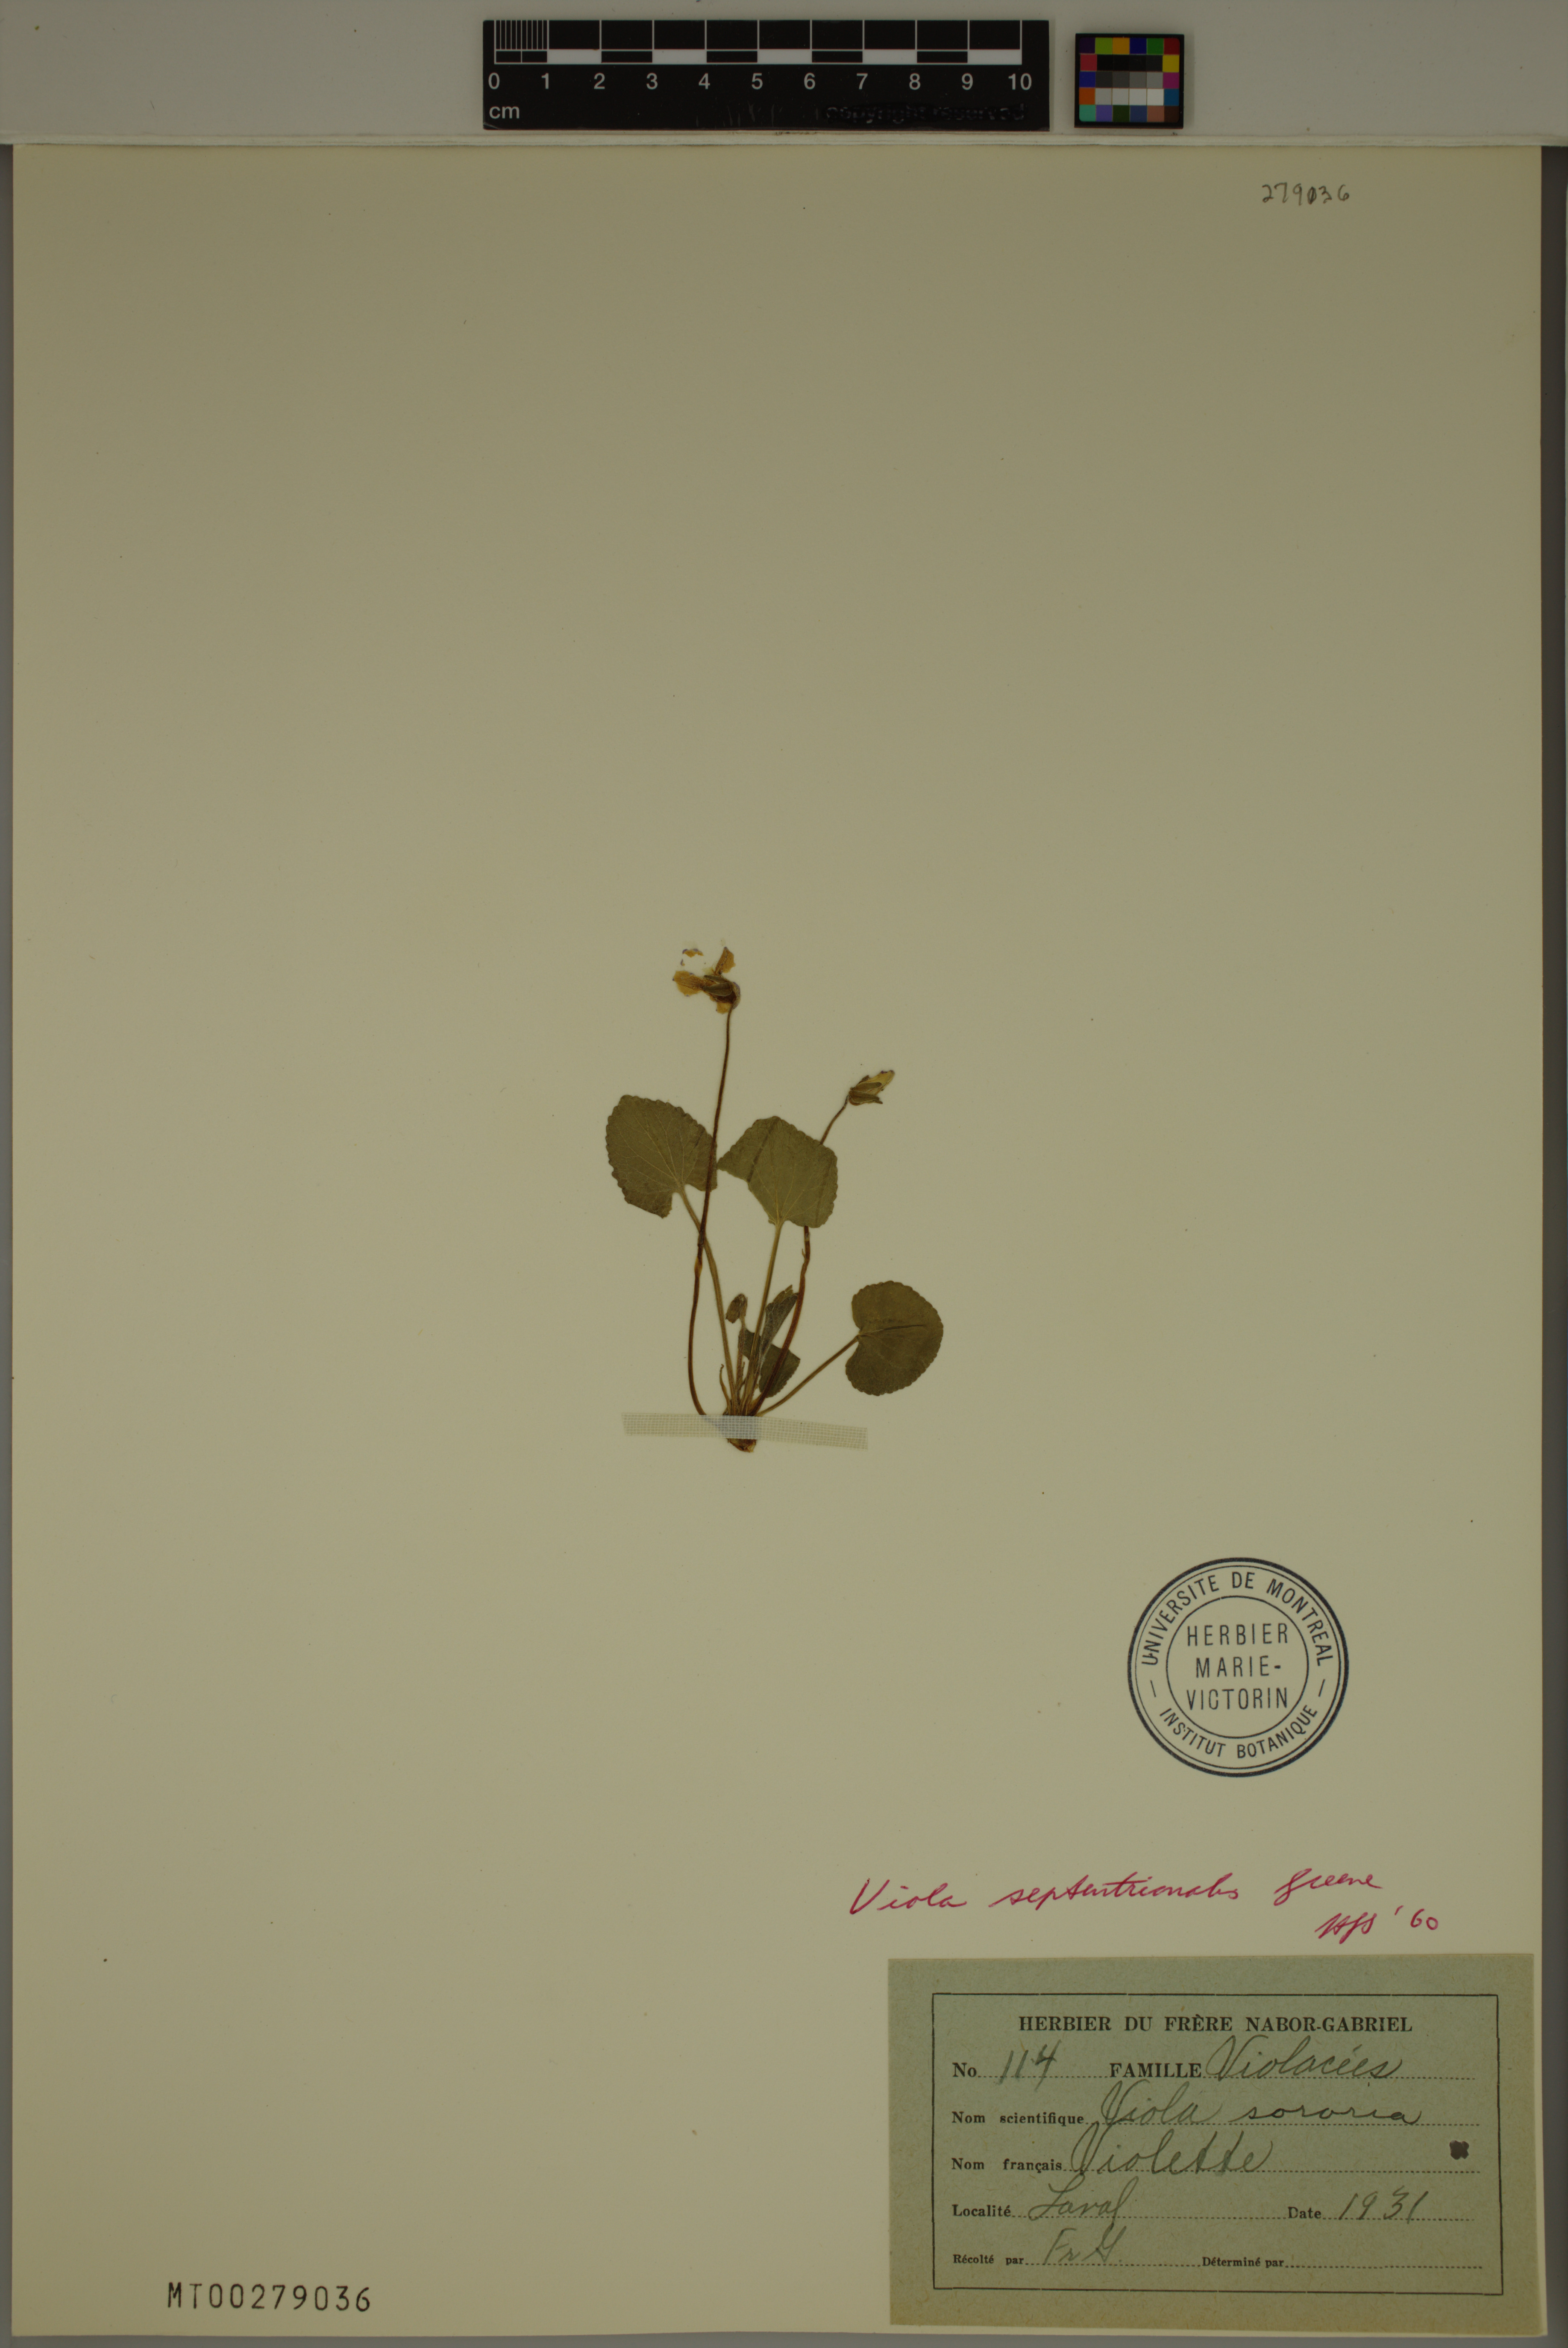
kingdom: Plantae
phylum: Tracheophyta
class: Magnoliopsida
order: Malpighiales
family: Violaceae
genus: Viola
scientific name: Viola septentrionalis
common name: Northern woodland violet
